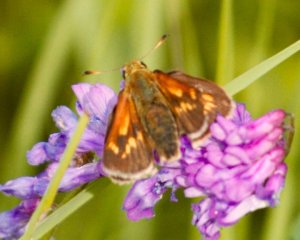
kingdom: Animalia
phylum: Arthropoda
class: Insecta
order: Lepidoptera
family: Hesperiidae
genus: Polites
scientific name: Polites coras
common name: Peck's Skipper
